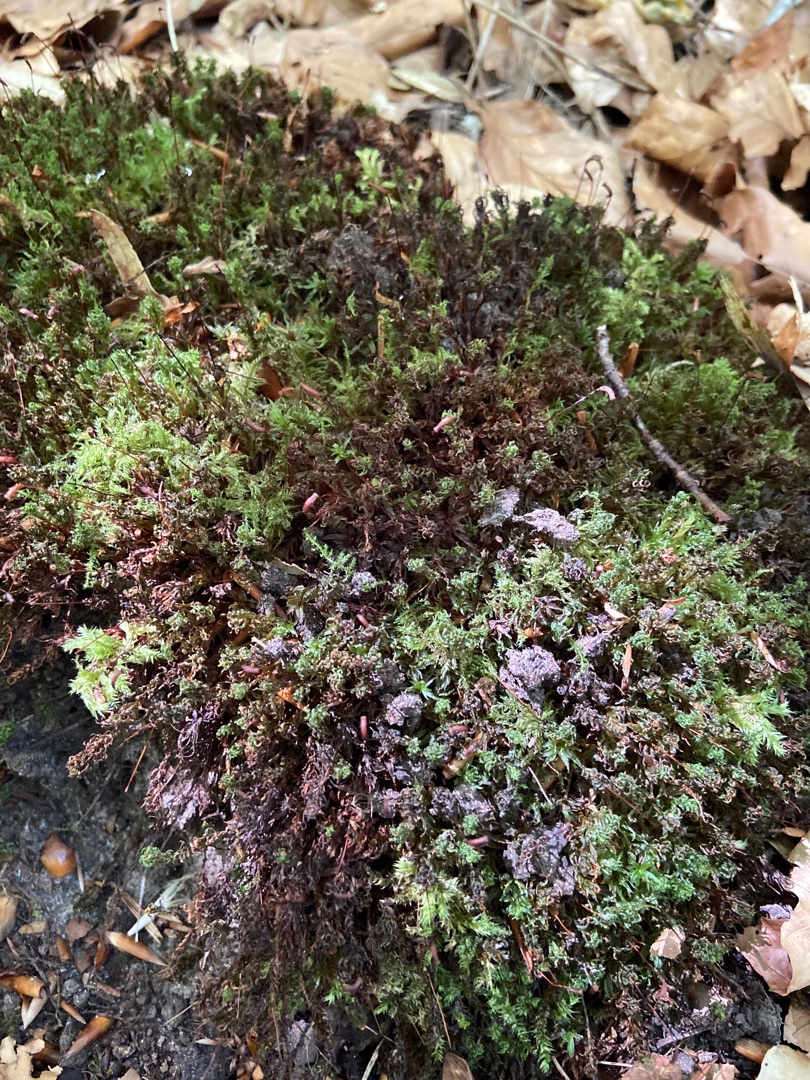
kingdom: Plantae
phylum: Bryophyta
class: Polytrichopsida
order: Polytrichales
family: Polytrichaceae
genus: Atrichum
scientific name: Atrichum undulatum
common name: Bølget katrinemos
